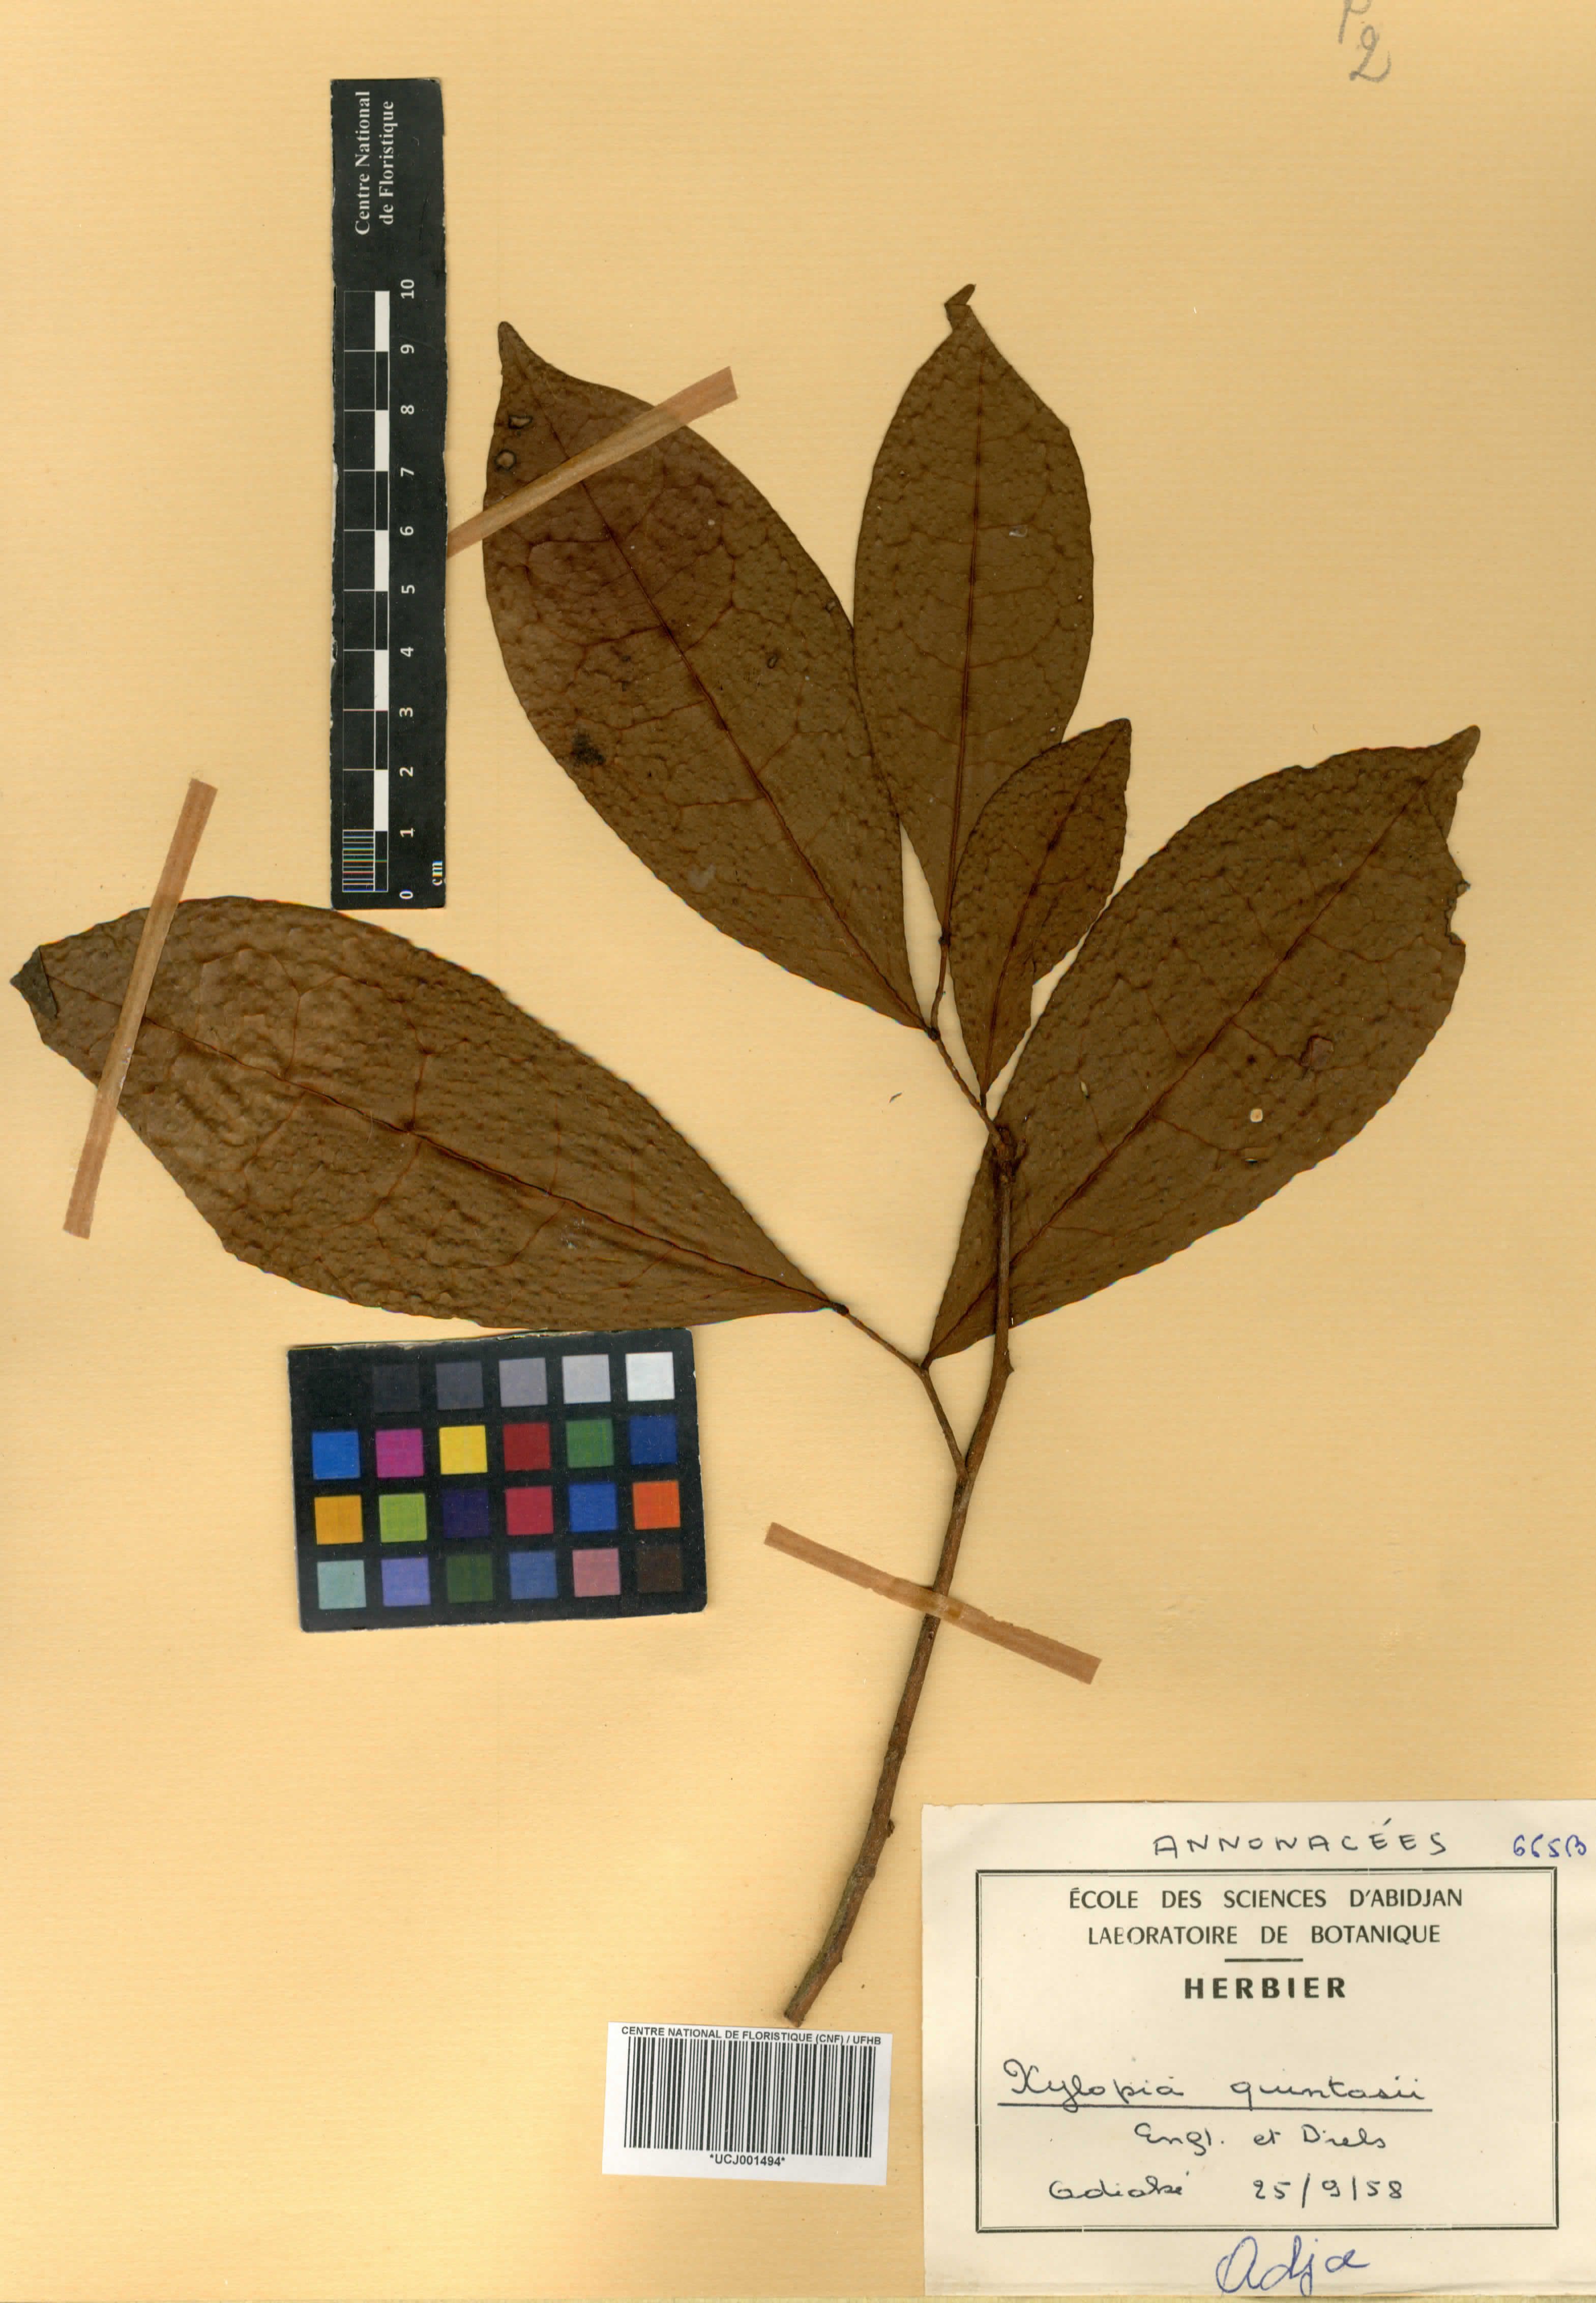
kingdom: Plantae
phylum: Tracheophyta
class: Magnoliopsida
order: Magnoliales
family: Annonaceae
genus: Xylopia
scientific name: Xylopia quintasii
